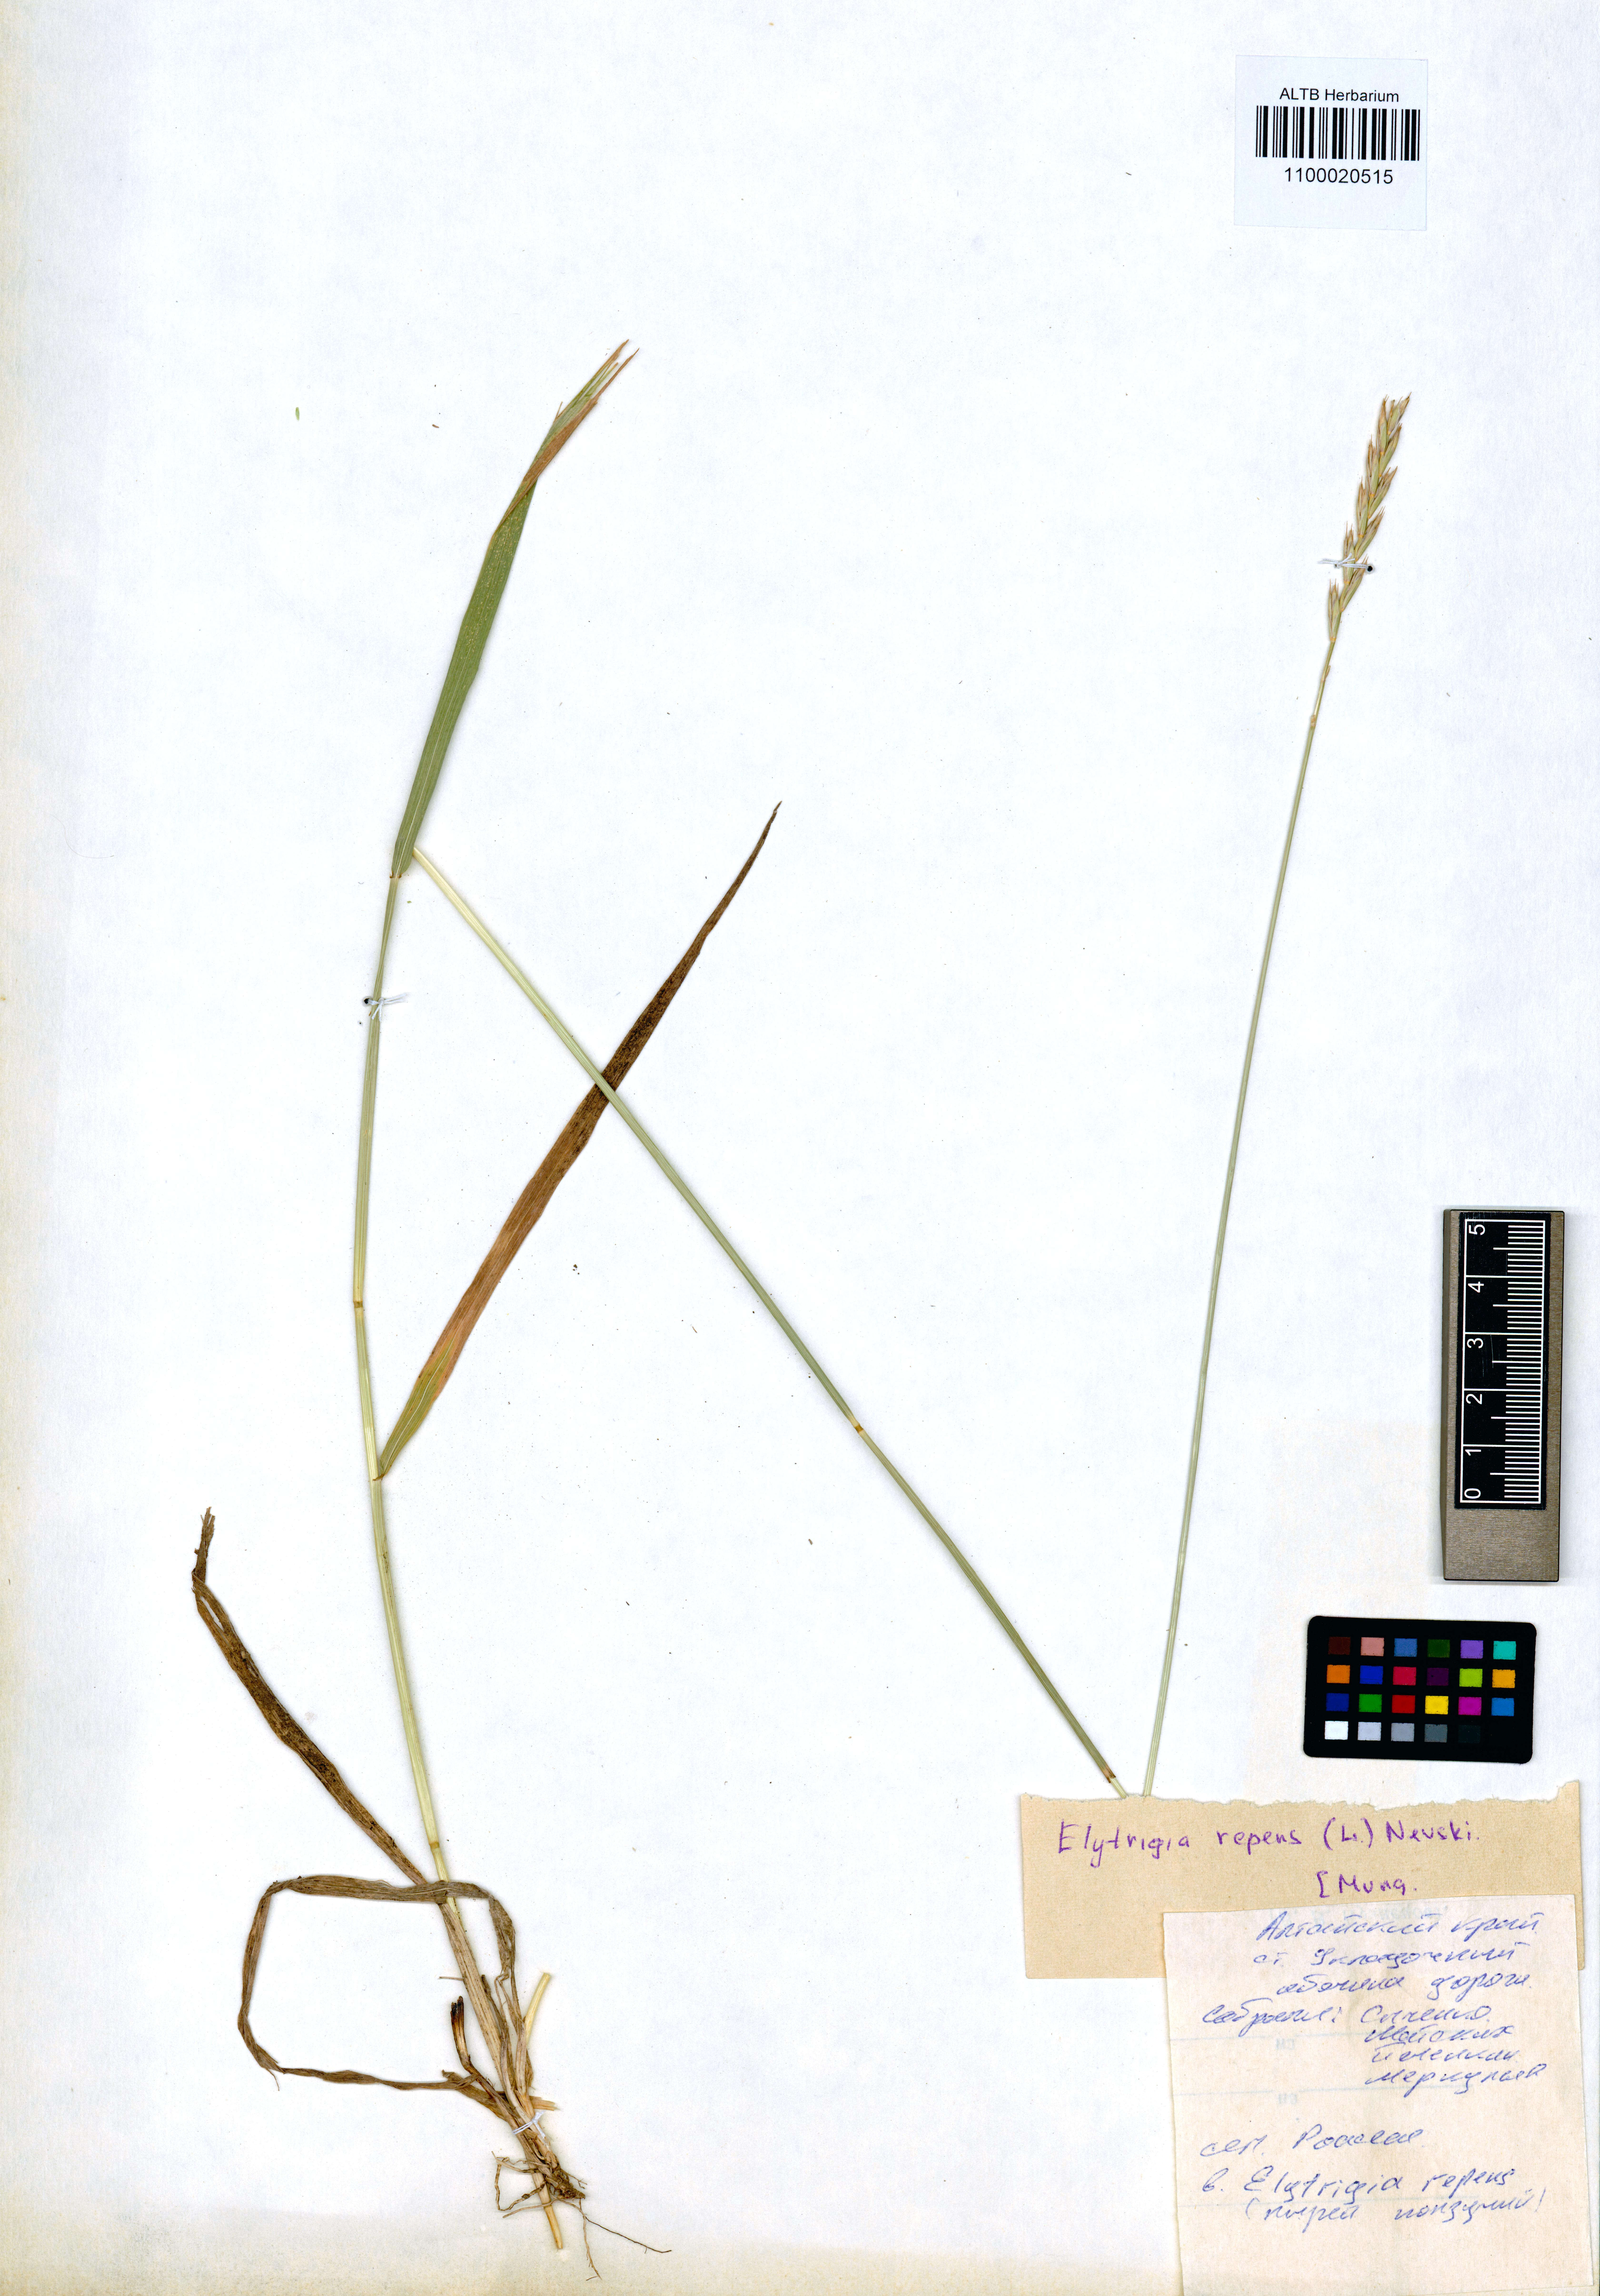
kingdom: Plantae
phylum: Tracheophyta
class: Liliopsida
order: Poales
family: Poaceae
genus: Elymus
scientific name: Elymus repens
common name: Quackgrass
